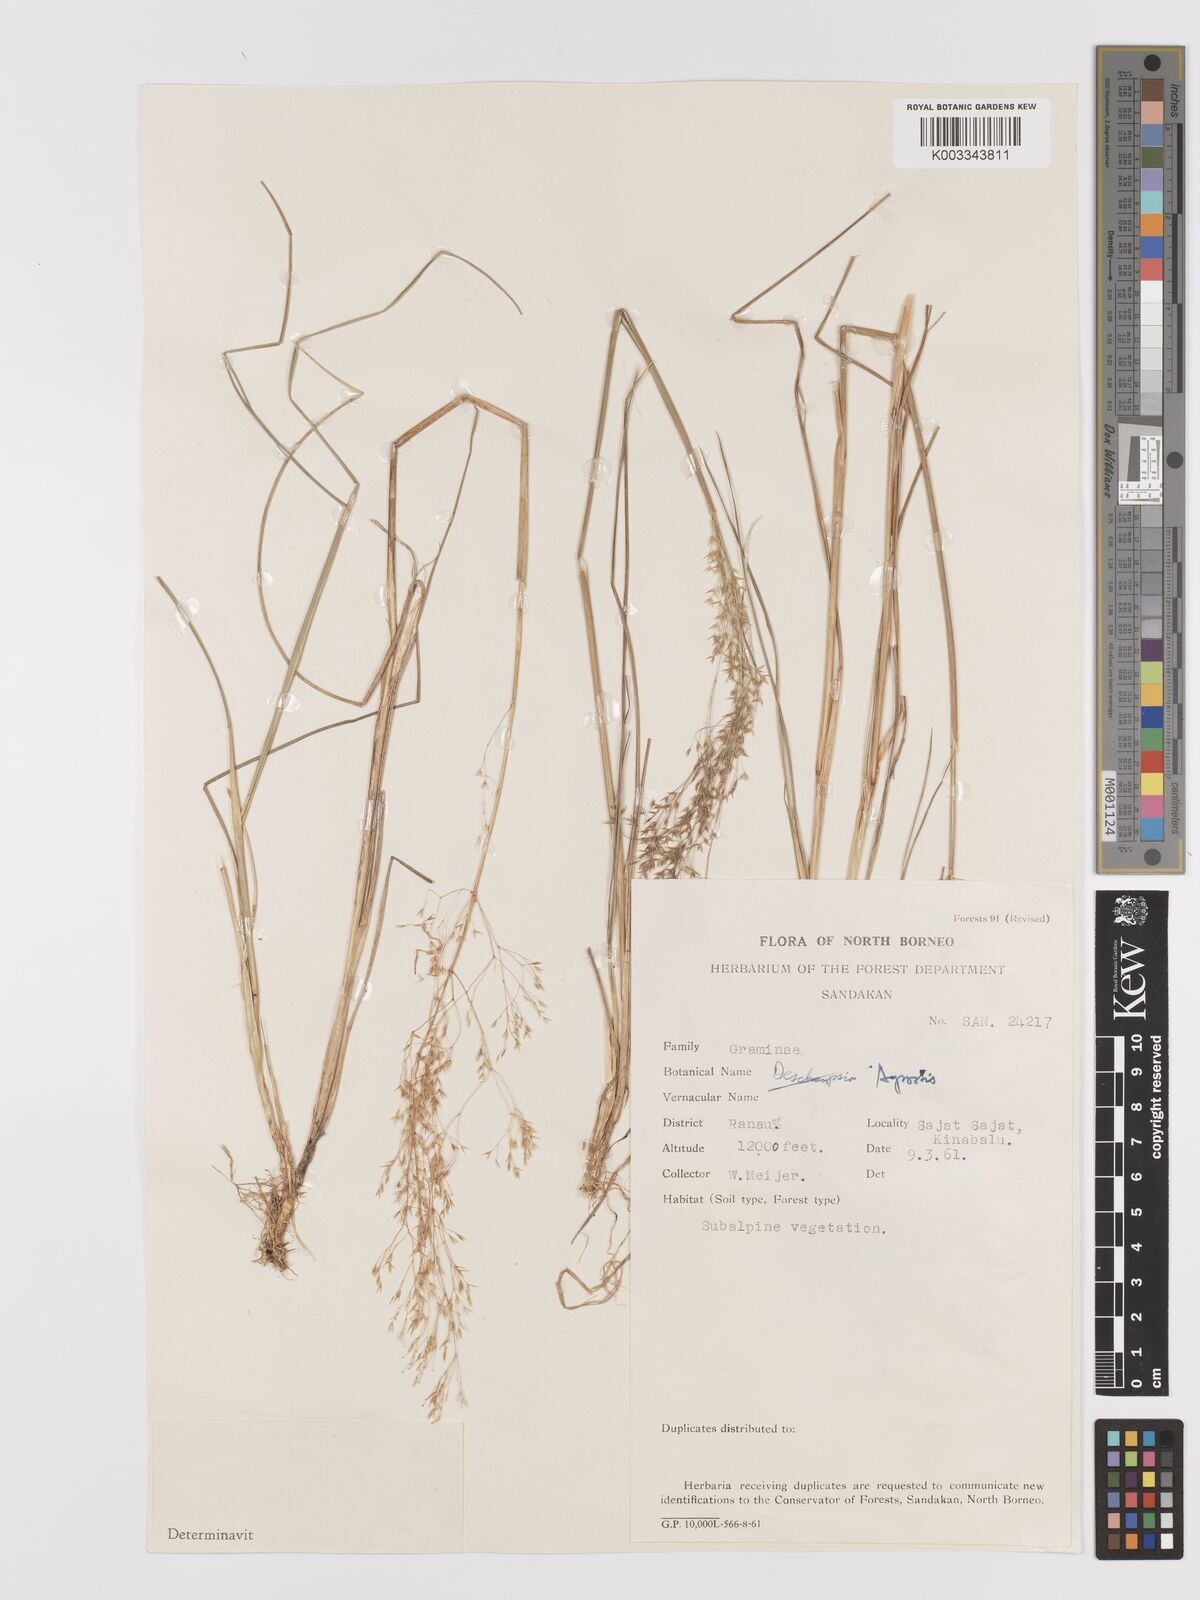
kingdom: Plantae
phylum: Tracheophyta
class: Liliopsida
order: Poales
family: Poaceae
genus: Agrostis
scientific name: Agrostis infirma
